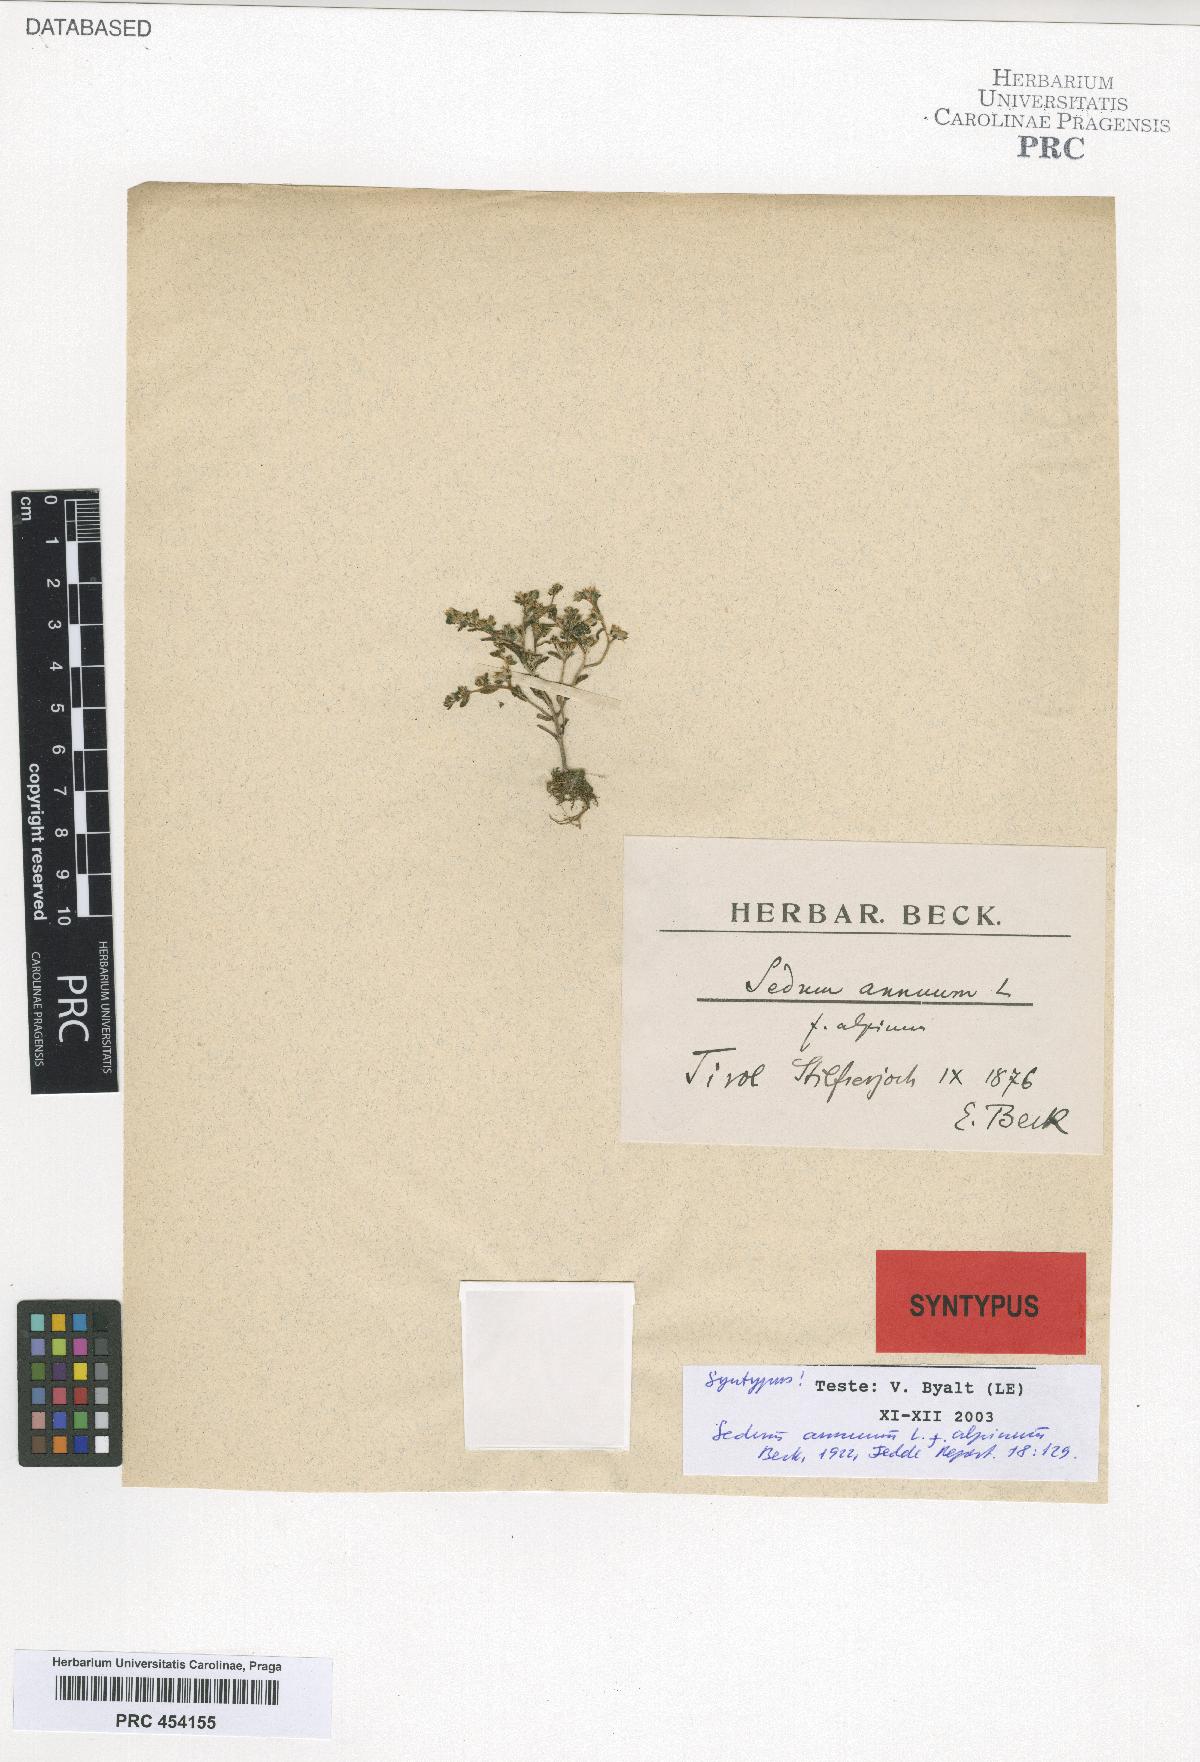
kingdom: Plantae
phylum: Tracheophyta
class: Magnoliopsida
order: Saxifragales
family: Crassulaceae
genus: Sedum
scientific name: Sedum annuum
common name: Annual stonecrop
